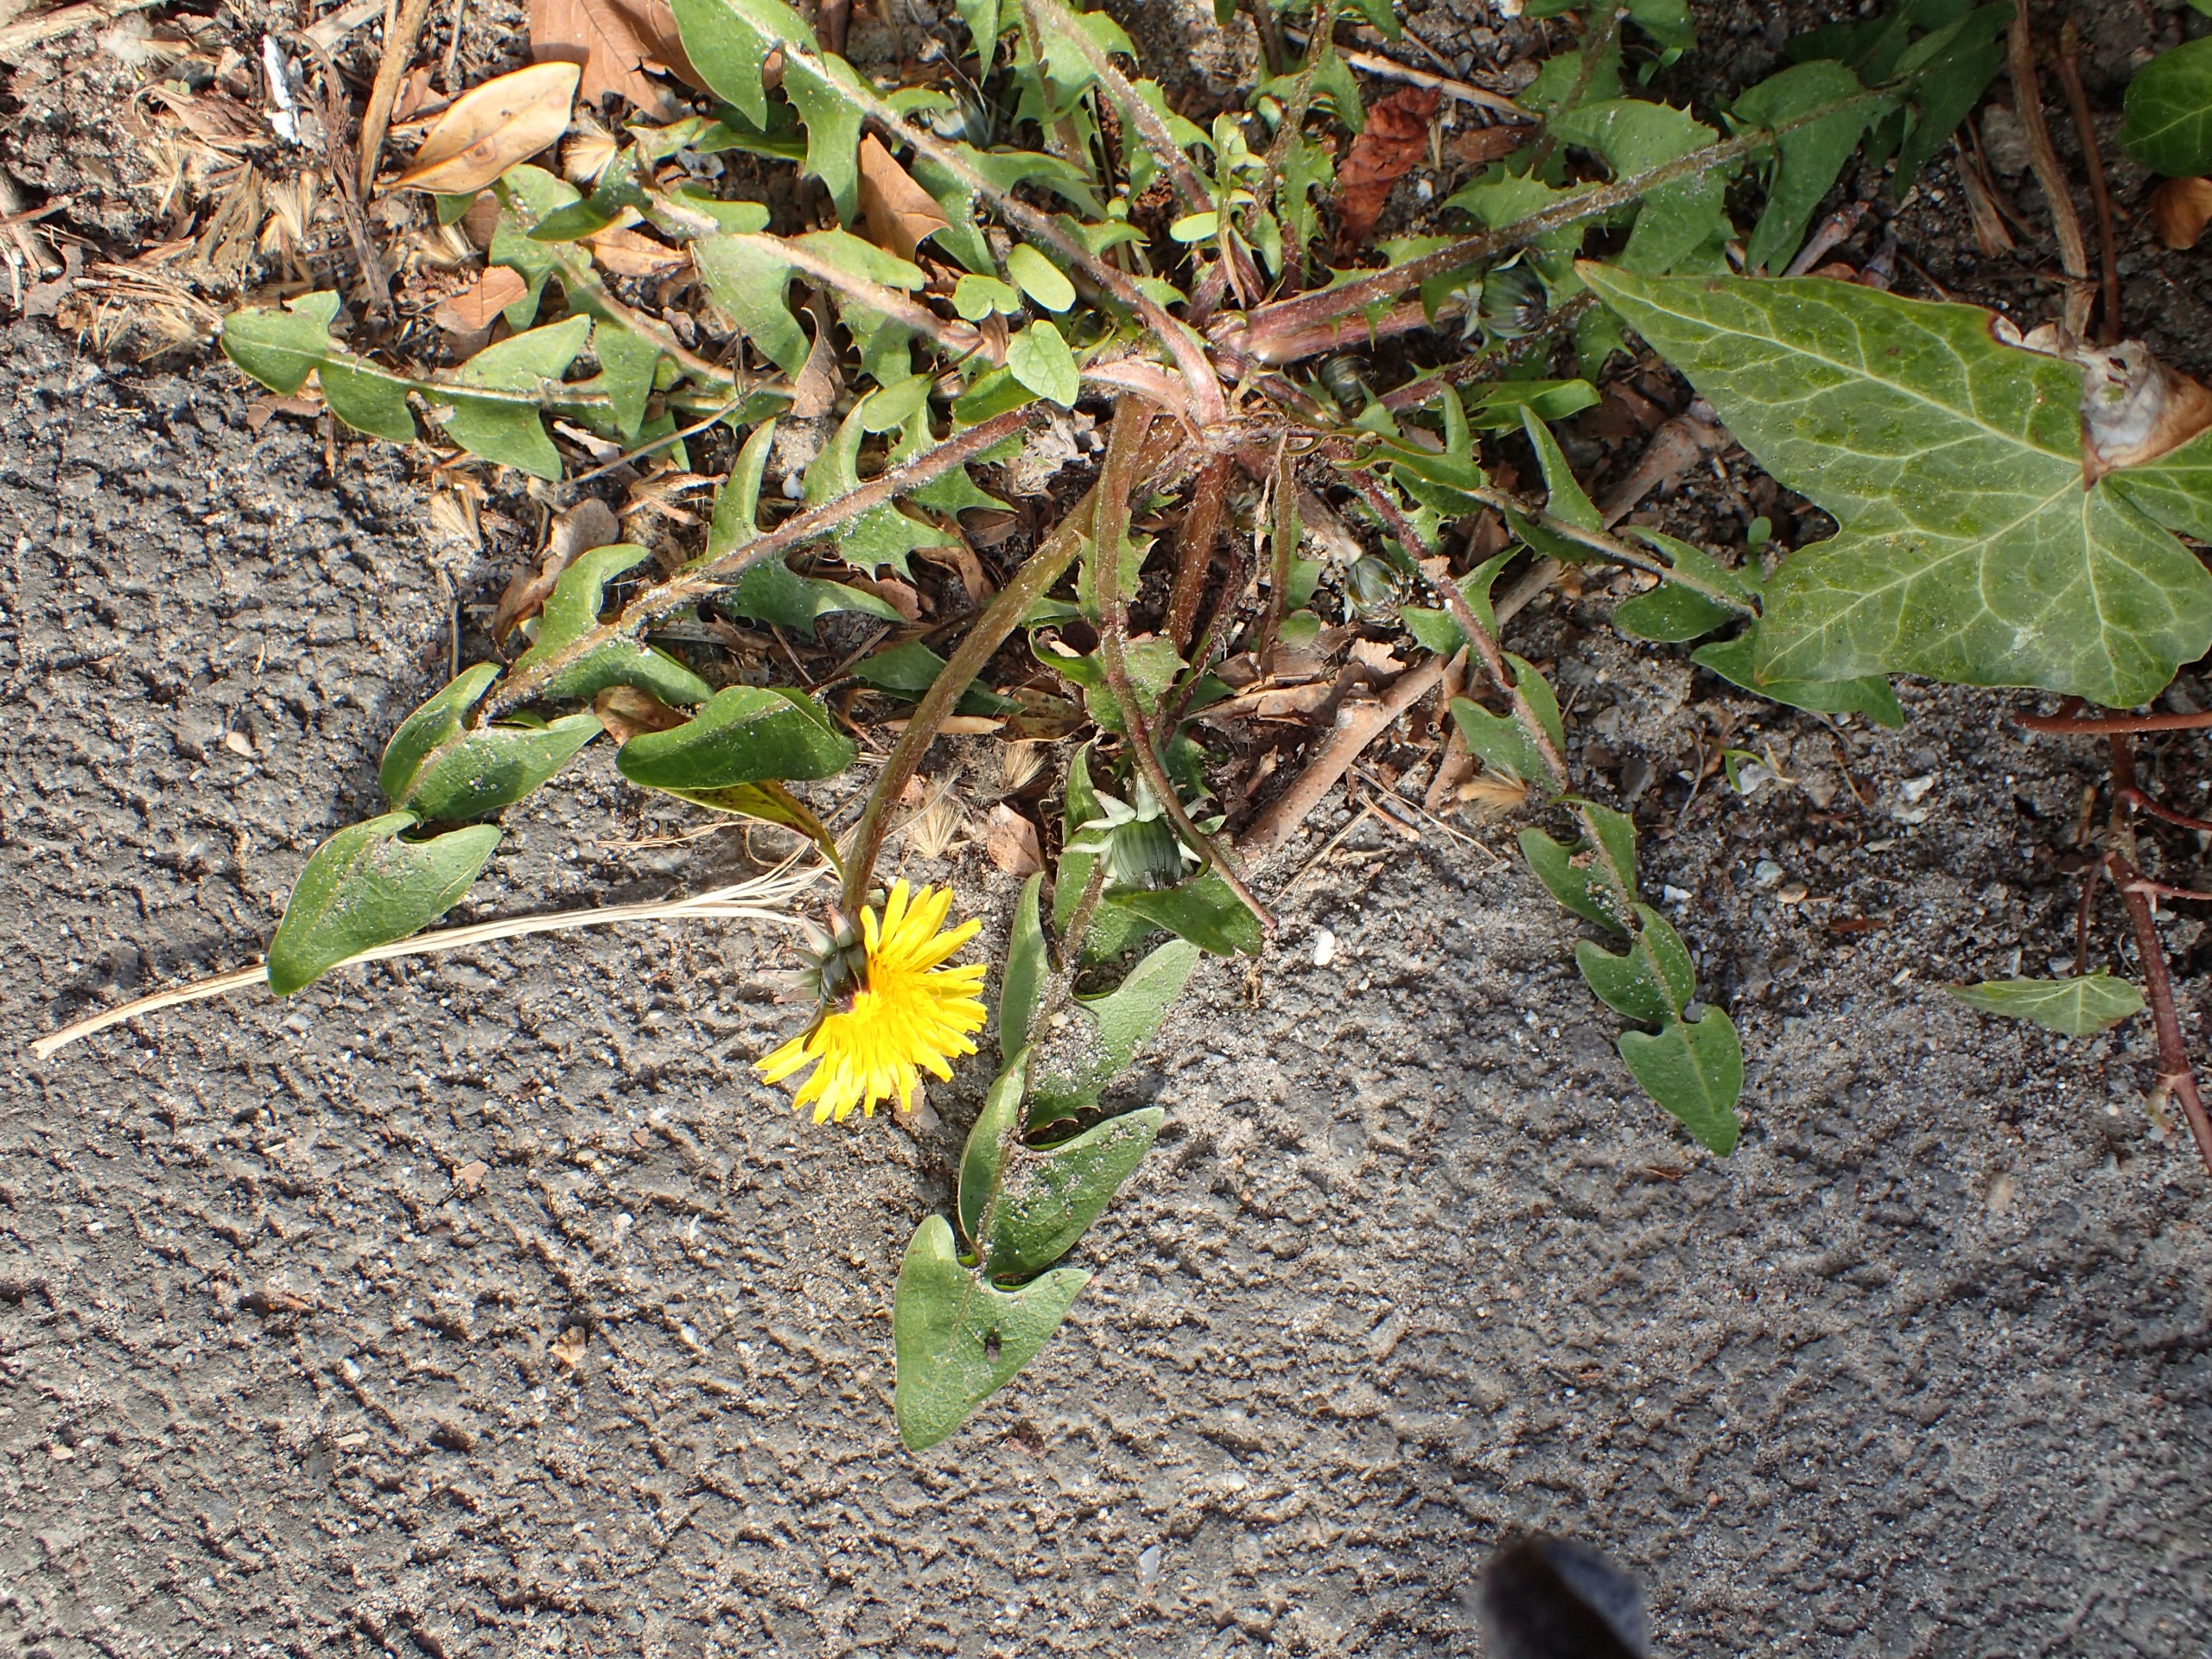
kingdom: Plantae
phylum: Tracheophyta
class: Magnoliopsida
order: Asterales
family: Asteraceae
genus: Taraxacum
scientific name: Taraxacum
